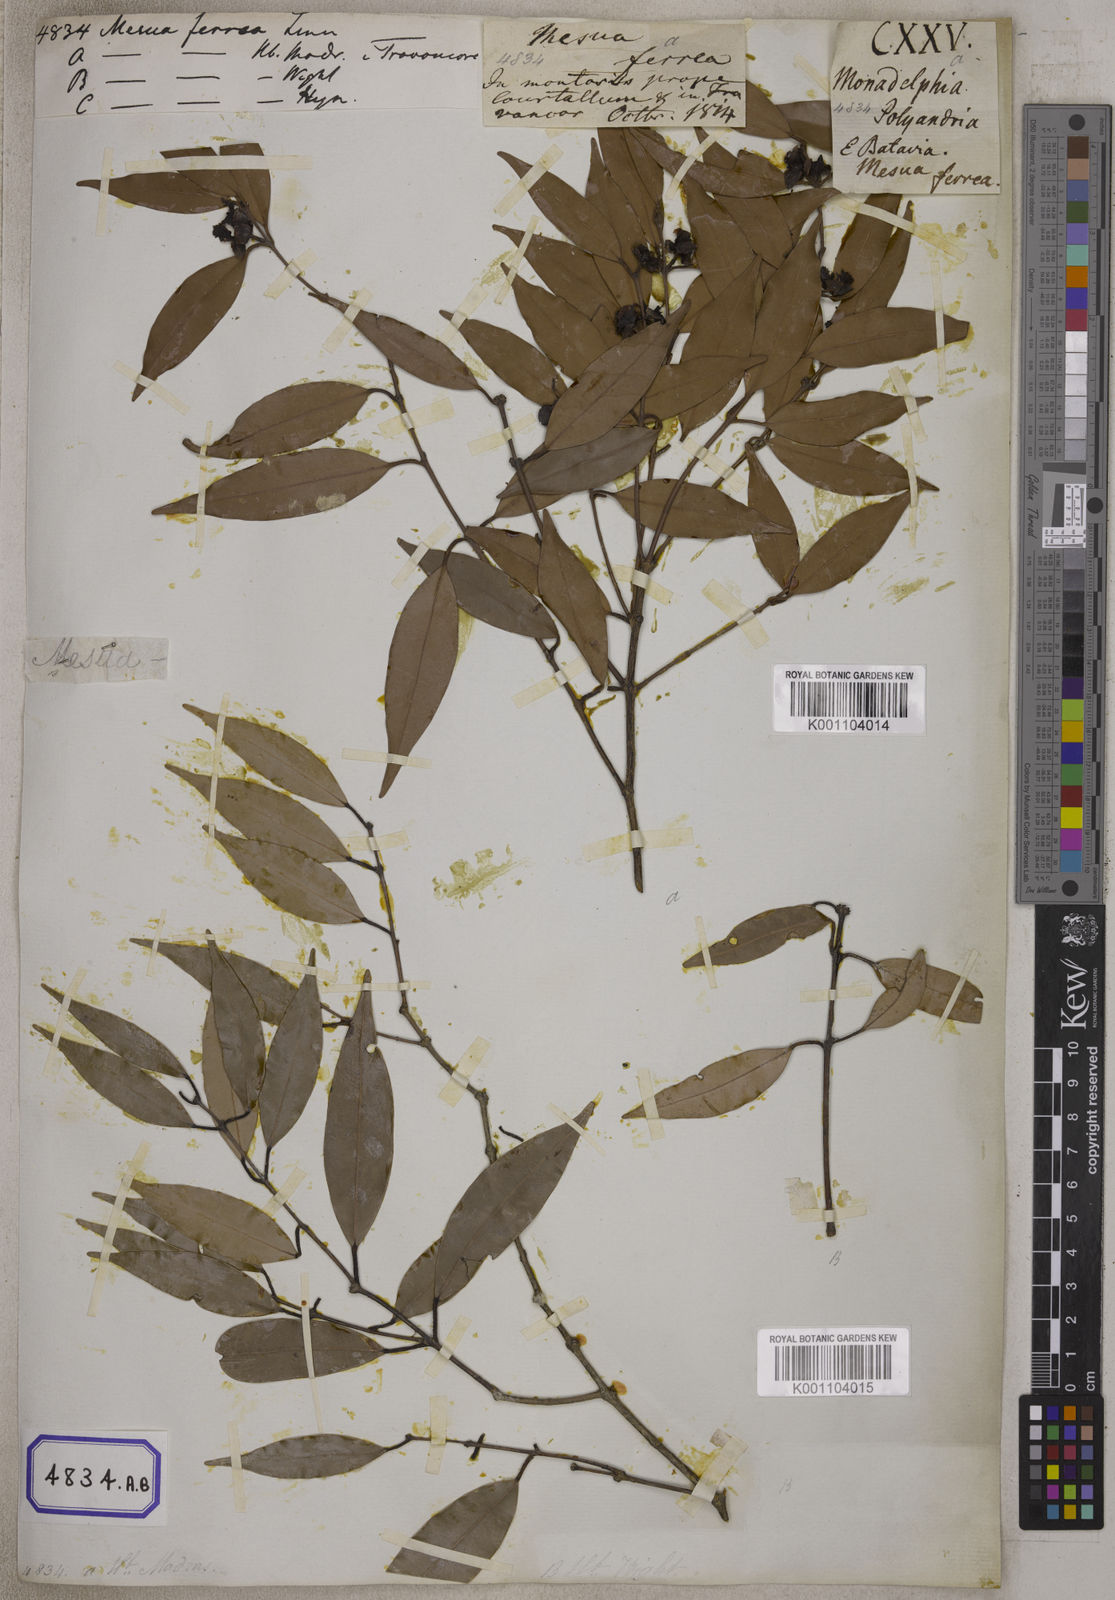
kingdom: Plantae
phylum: Tracheophyta
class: Magnoliopsida
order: Malpighiales
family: Calophyllaceae
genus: Mesua
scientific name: Mesua ferrea
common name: Mesua
